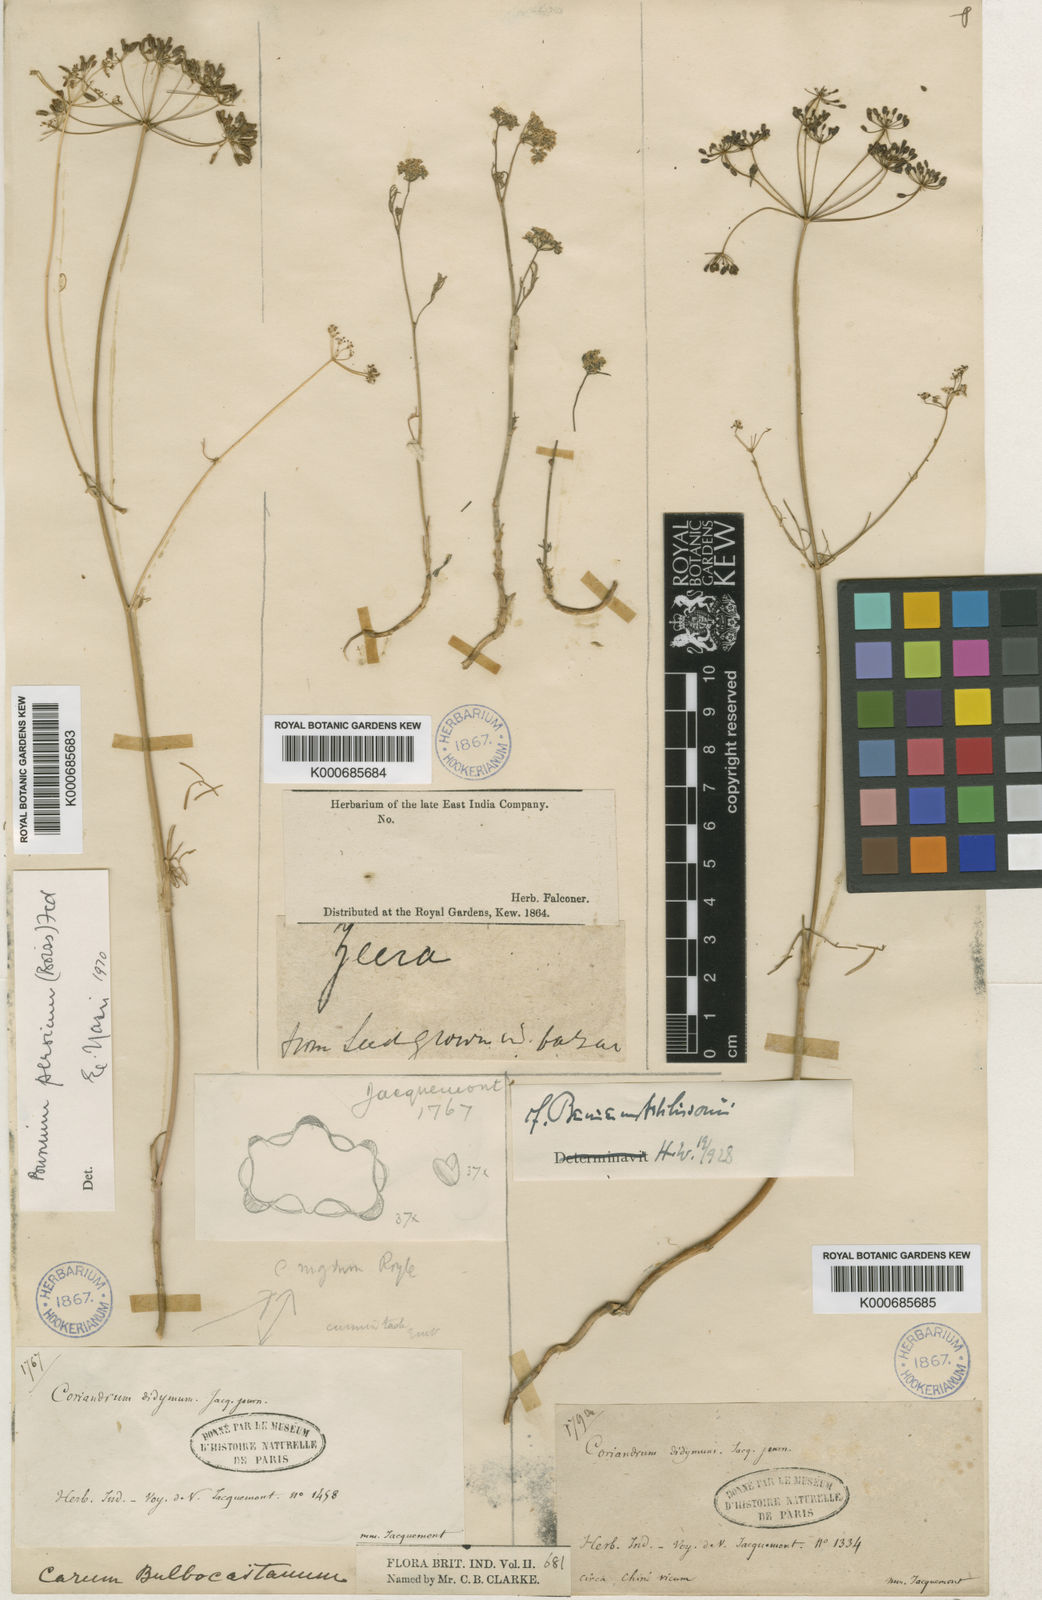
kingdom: Plantae
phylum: Tracheophyta
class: Magnoliopsida
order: Apiales
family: Apiaceae
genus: Elwendia
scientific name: Elwendia persica
